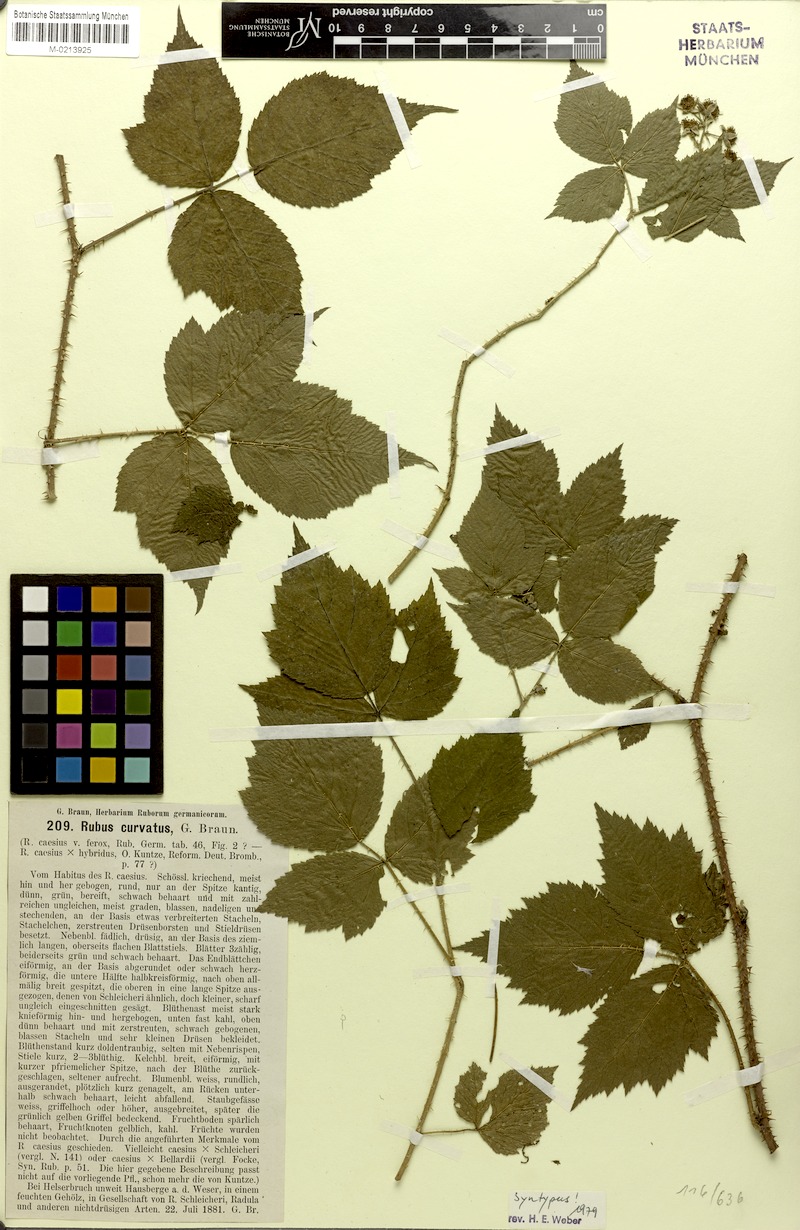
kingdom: Plantae
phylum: Tracheophyta
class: Magnoliopsida
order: Rosales
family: Rosaceae
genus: Rubus
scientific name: Rubus curvatus
